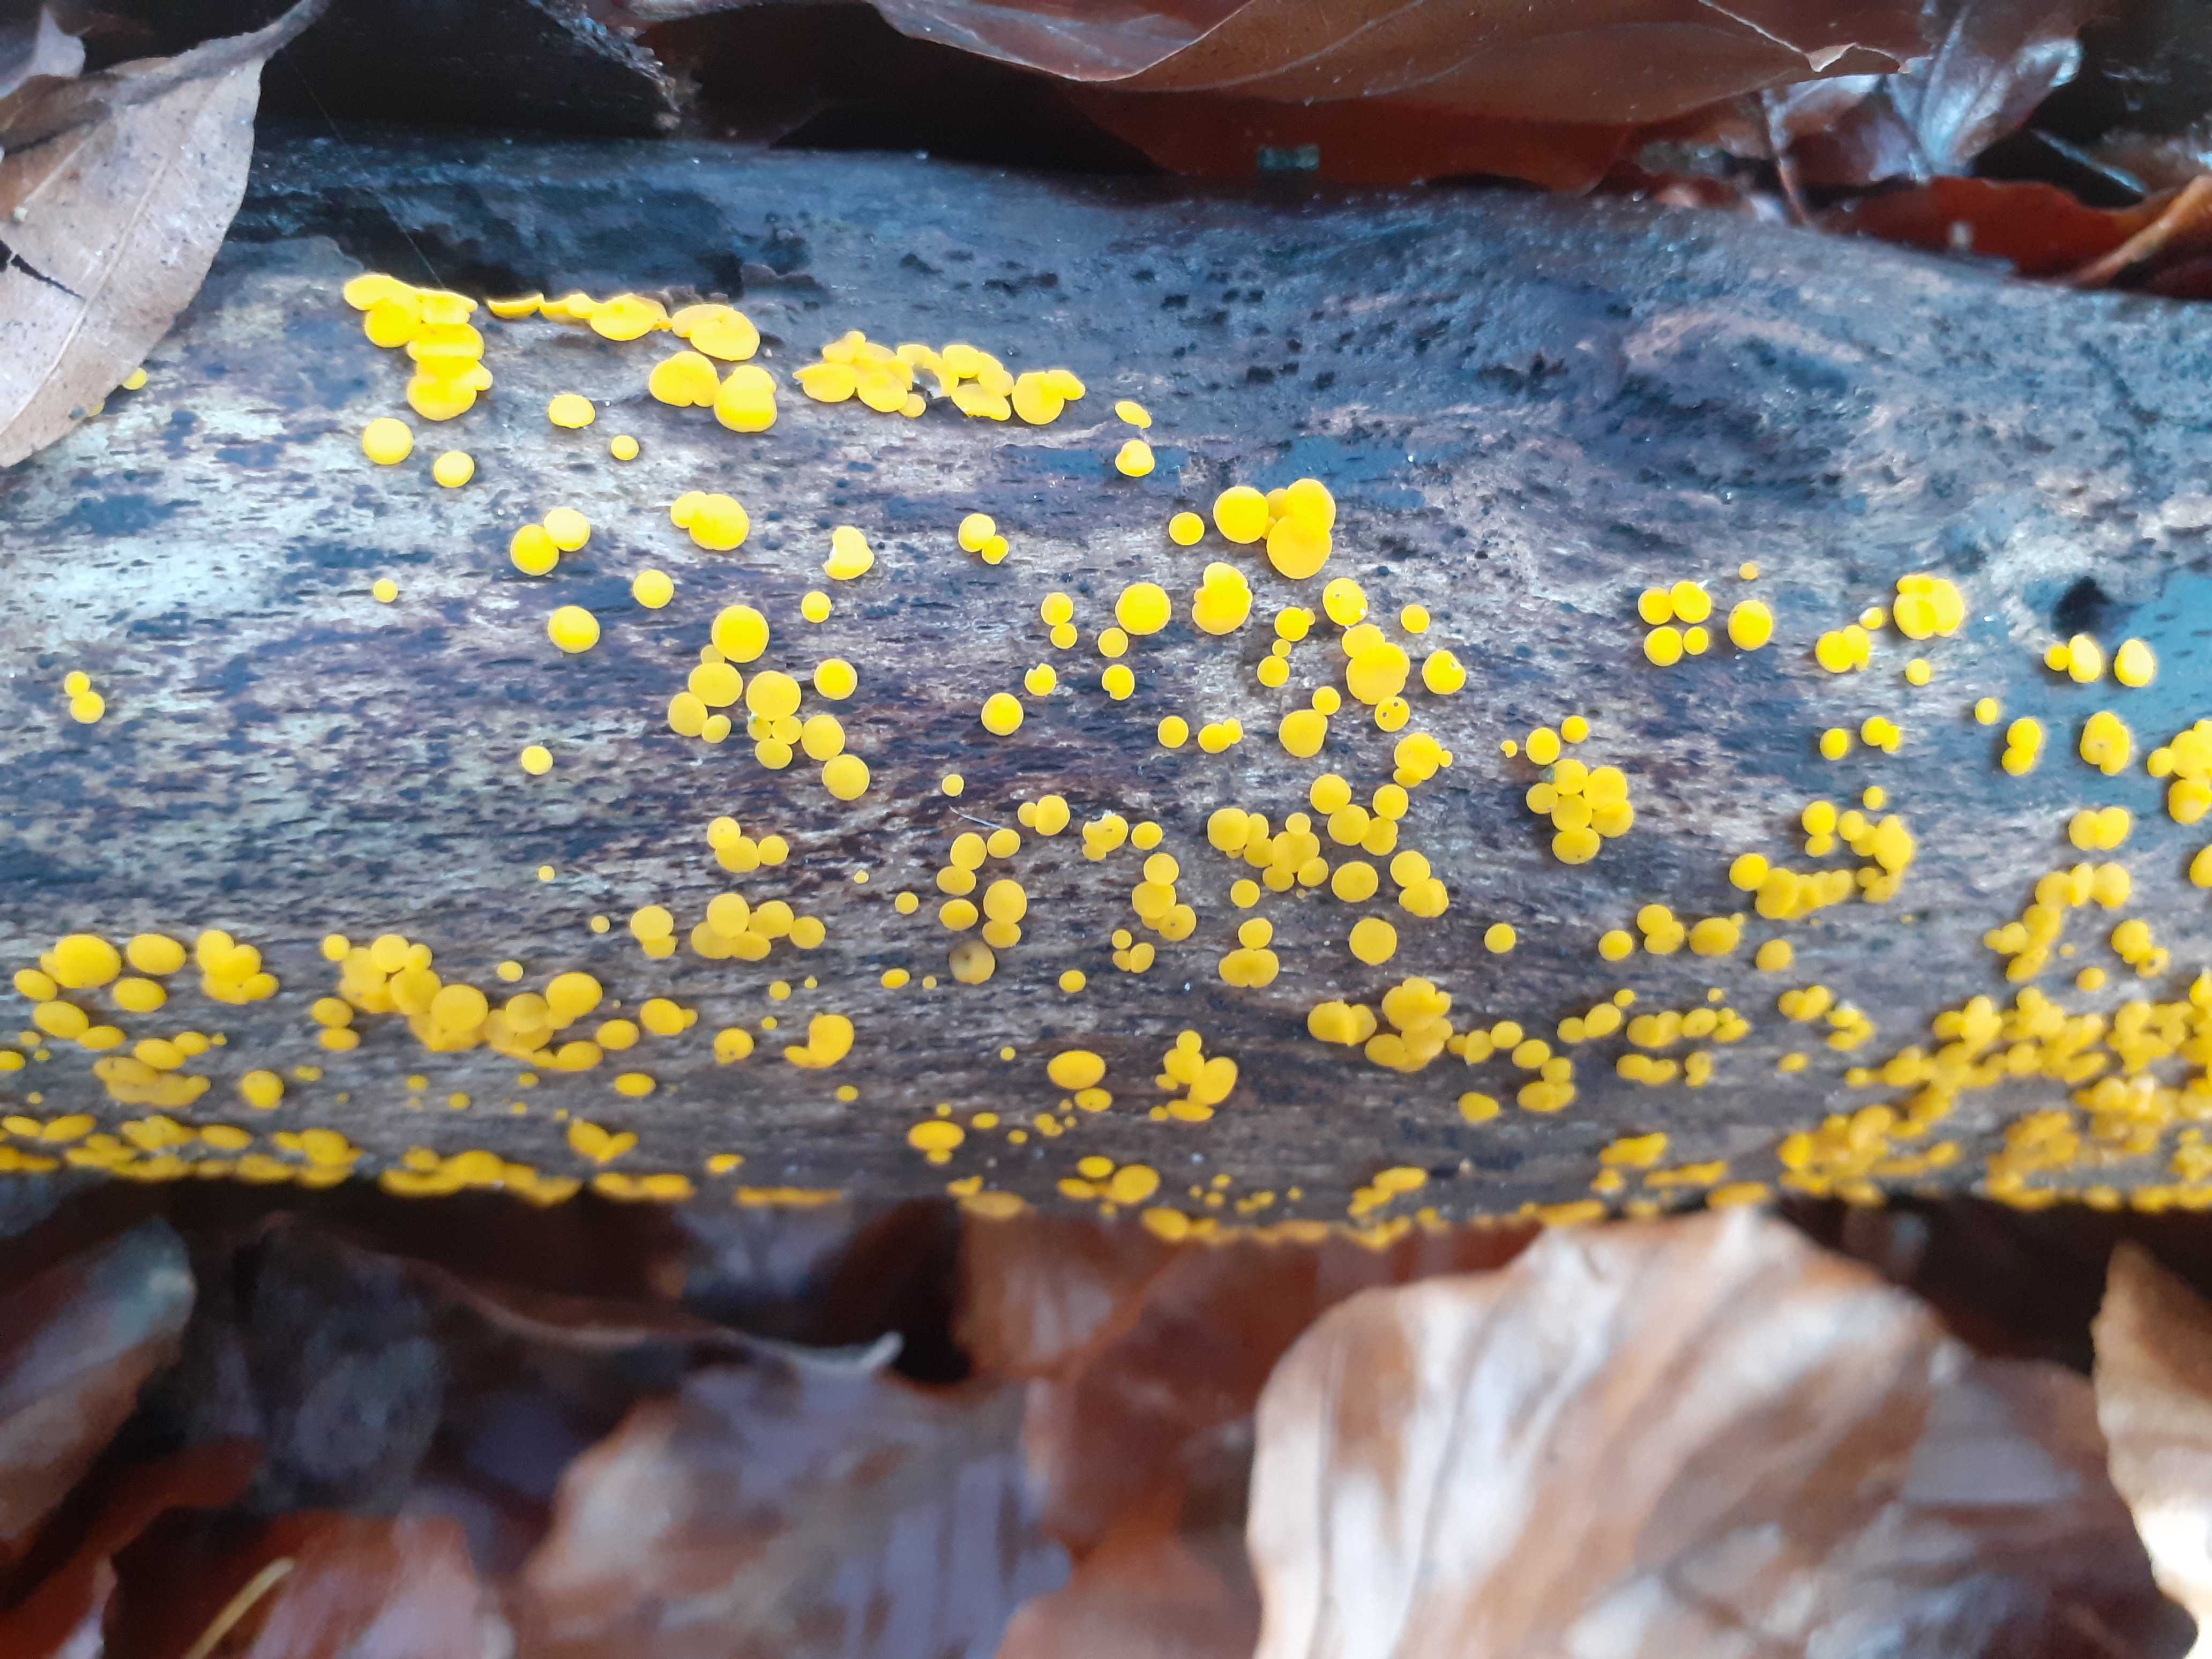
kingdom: Fungi
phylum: Ascomycota
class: Leotiomycetes
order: Helotiales
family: Pezizellaceae
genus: Calycina
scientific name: Calycina citrina
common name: almindelig gulskive
